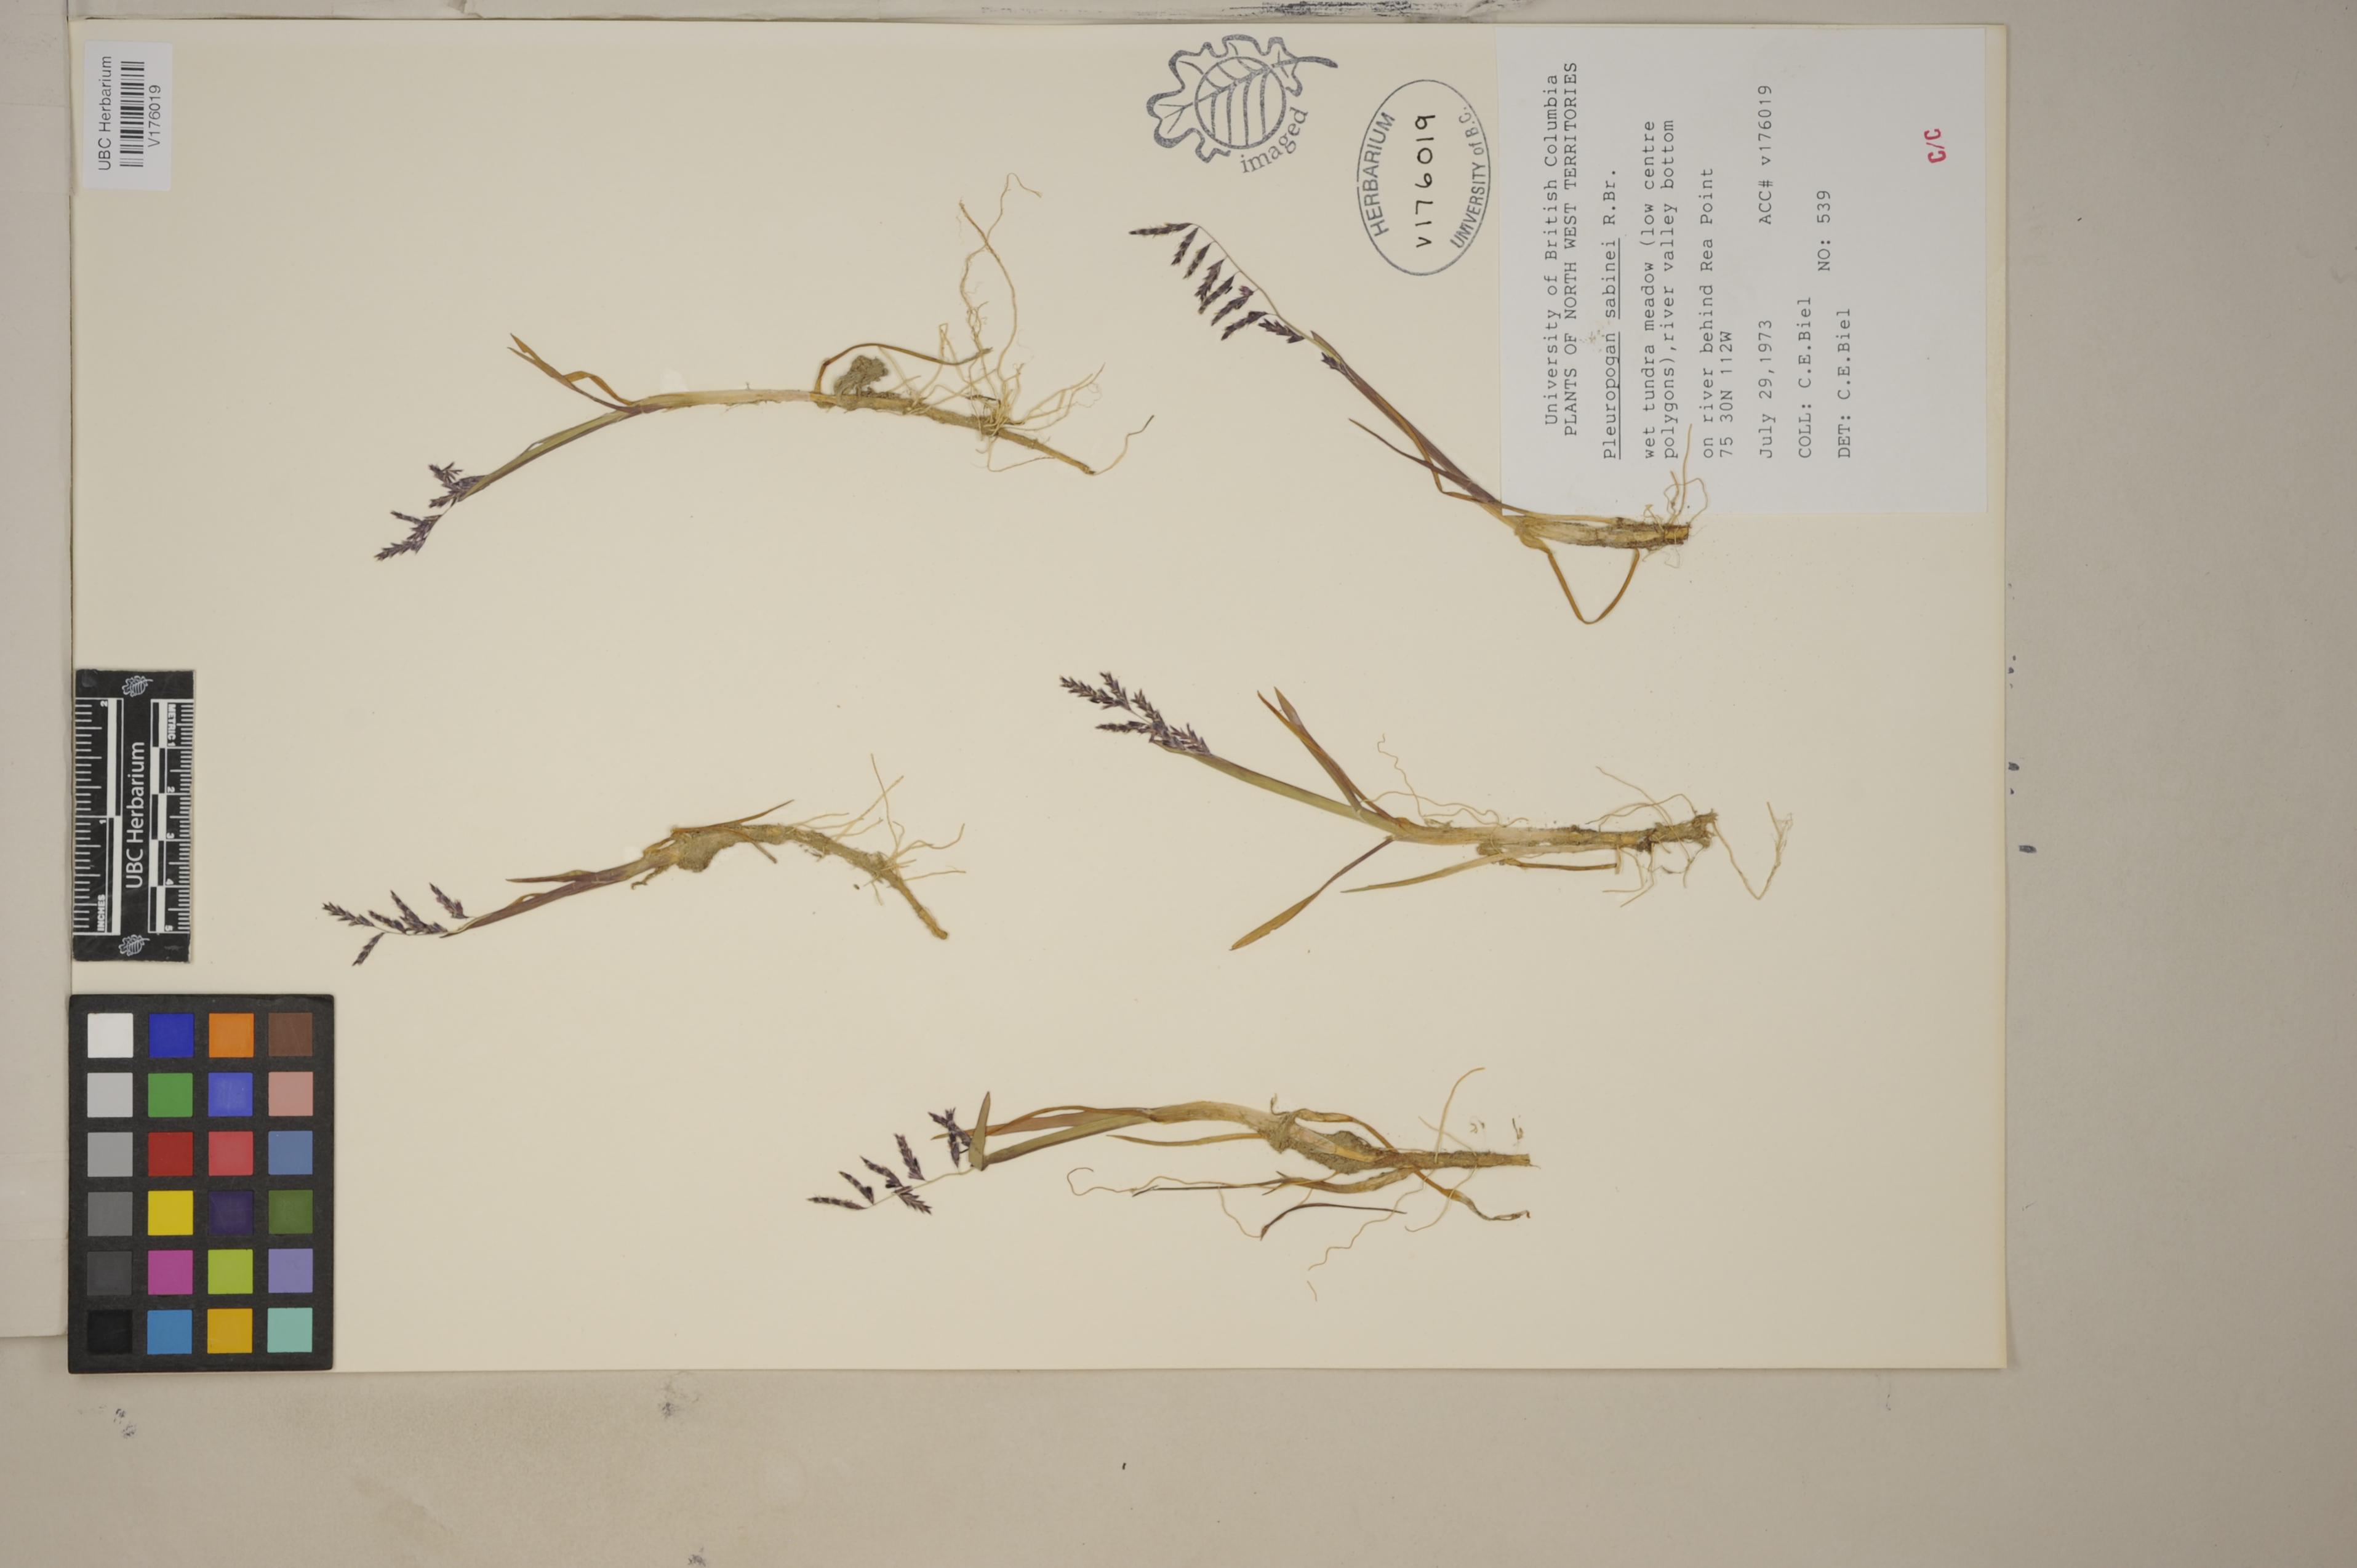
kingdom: Plantae
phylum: Tracheophyta
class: Liliopsida
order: Poales
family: Poaceae
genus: Pleuropogon
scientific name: Pleuropogon sabinei
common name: Sabine's false semaphoregrass
